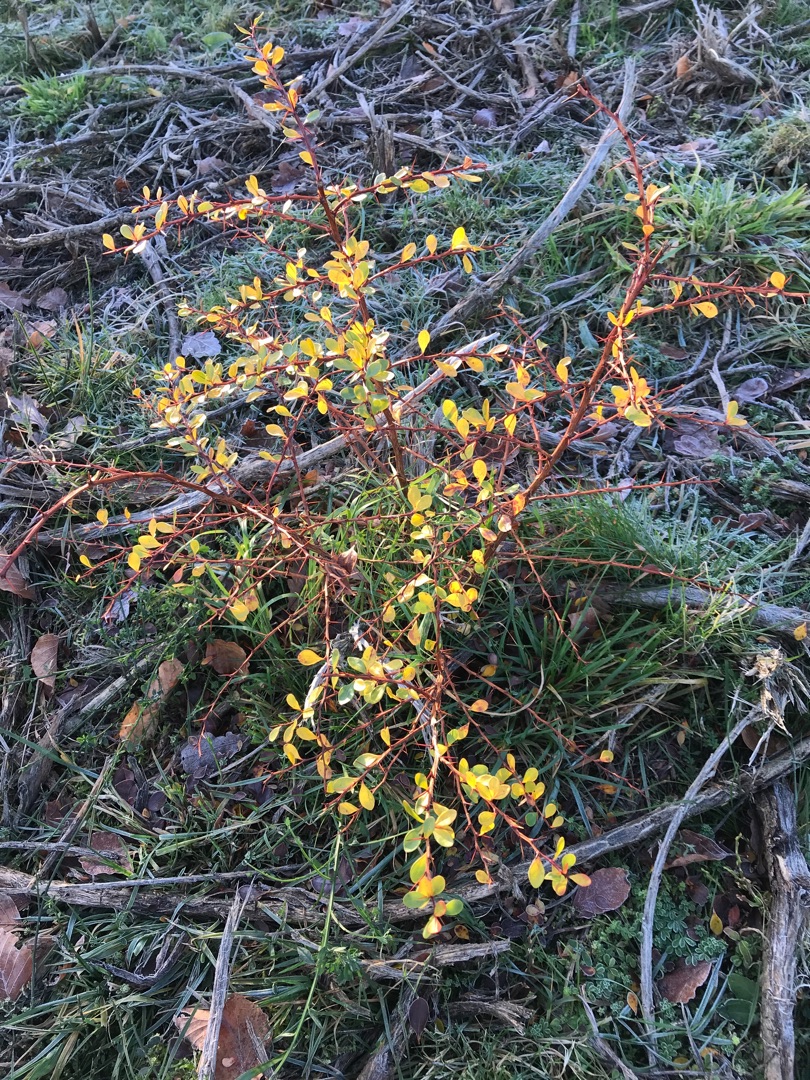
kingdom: Plantae
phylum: Tracheophyta
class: Magnoliopsida
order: Ranunculales
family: Berberidaceae
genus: Berberis
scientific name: Berberis thunbergii
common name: Hæk-berberis
